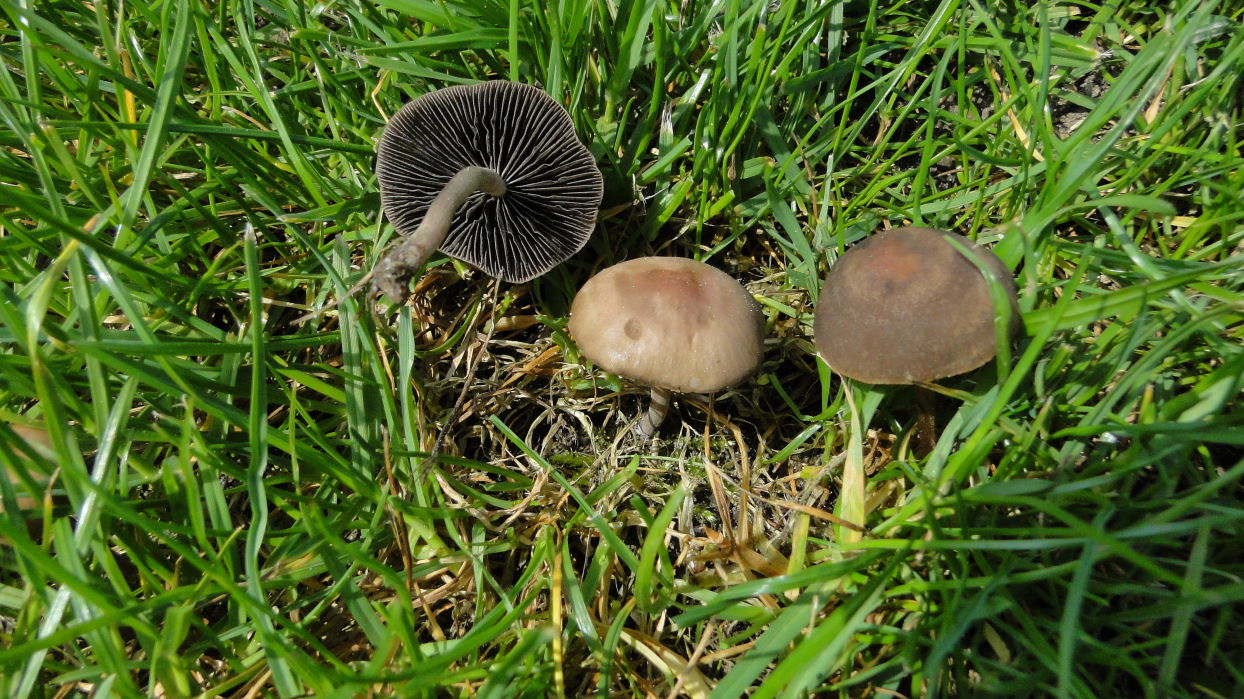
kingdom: Fungi
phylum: Basidiomycota
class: Agaricomycetes
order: Agaricales
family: Bolbitiaceae
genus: Panaeolus
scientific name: Panaeolus fimicola
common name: tidlig glanshat
